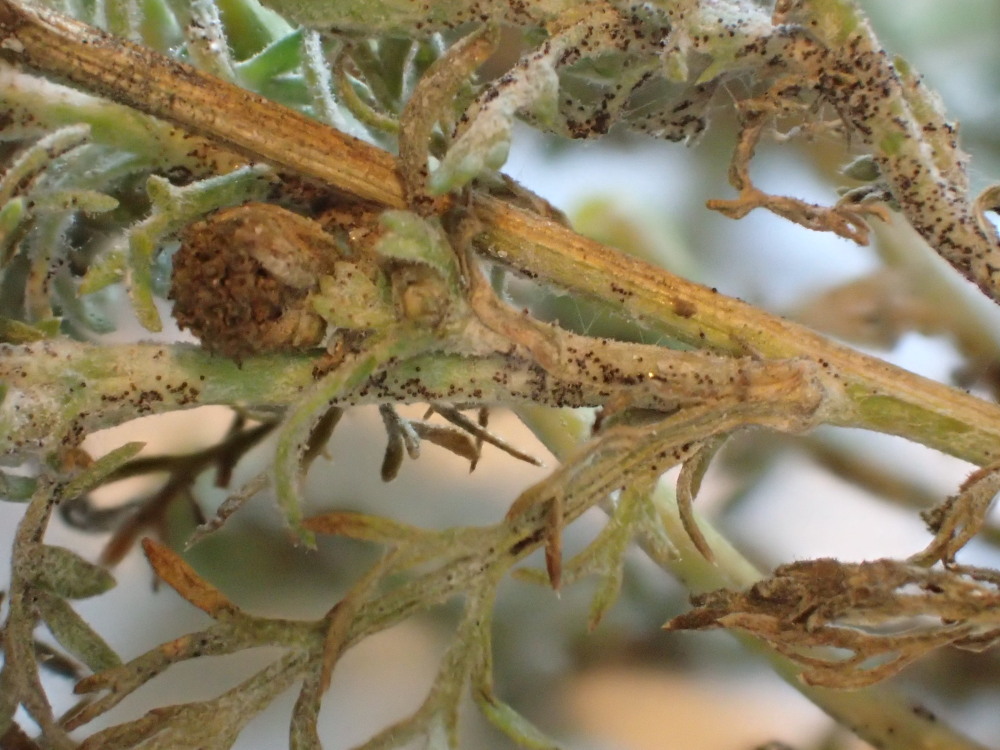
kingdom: Fungi
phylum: Ascomycota
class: Leotiomycetes
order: Helotiales
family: Erysiphaceae
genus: Podosphaera
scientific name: Podosphaera erigerontis-canadensis
